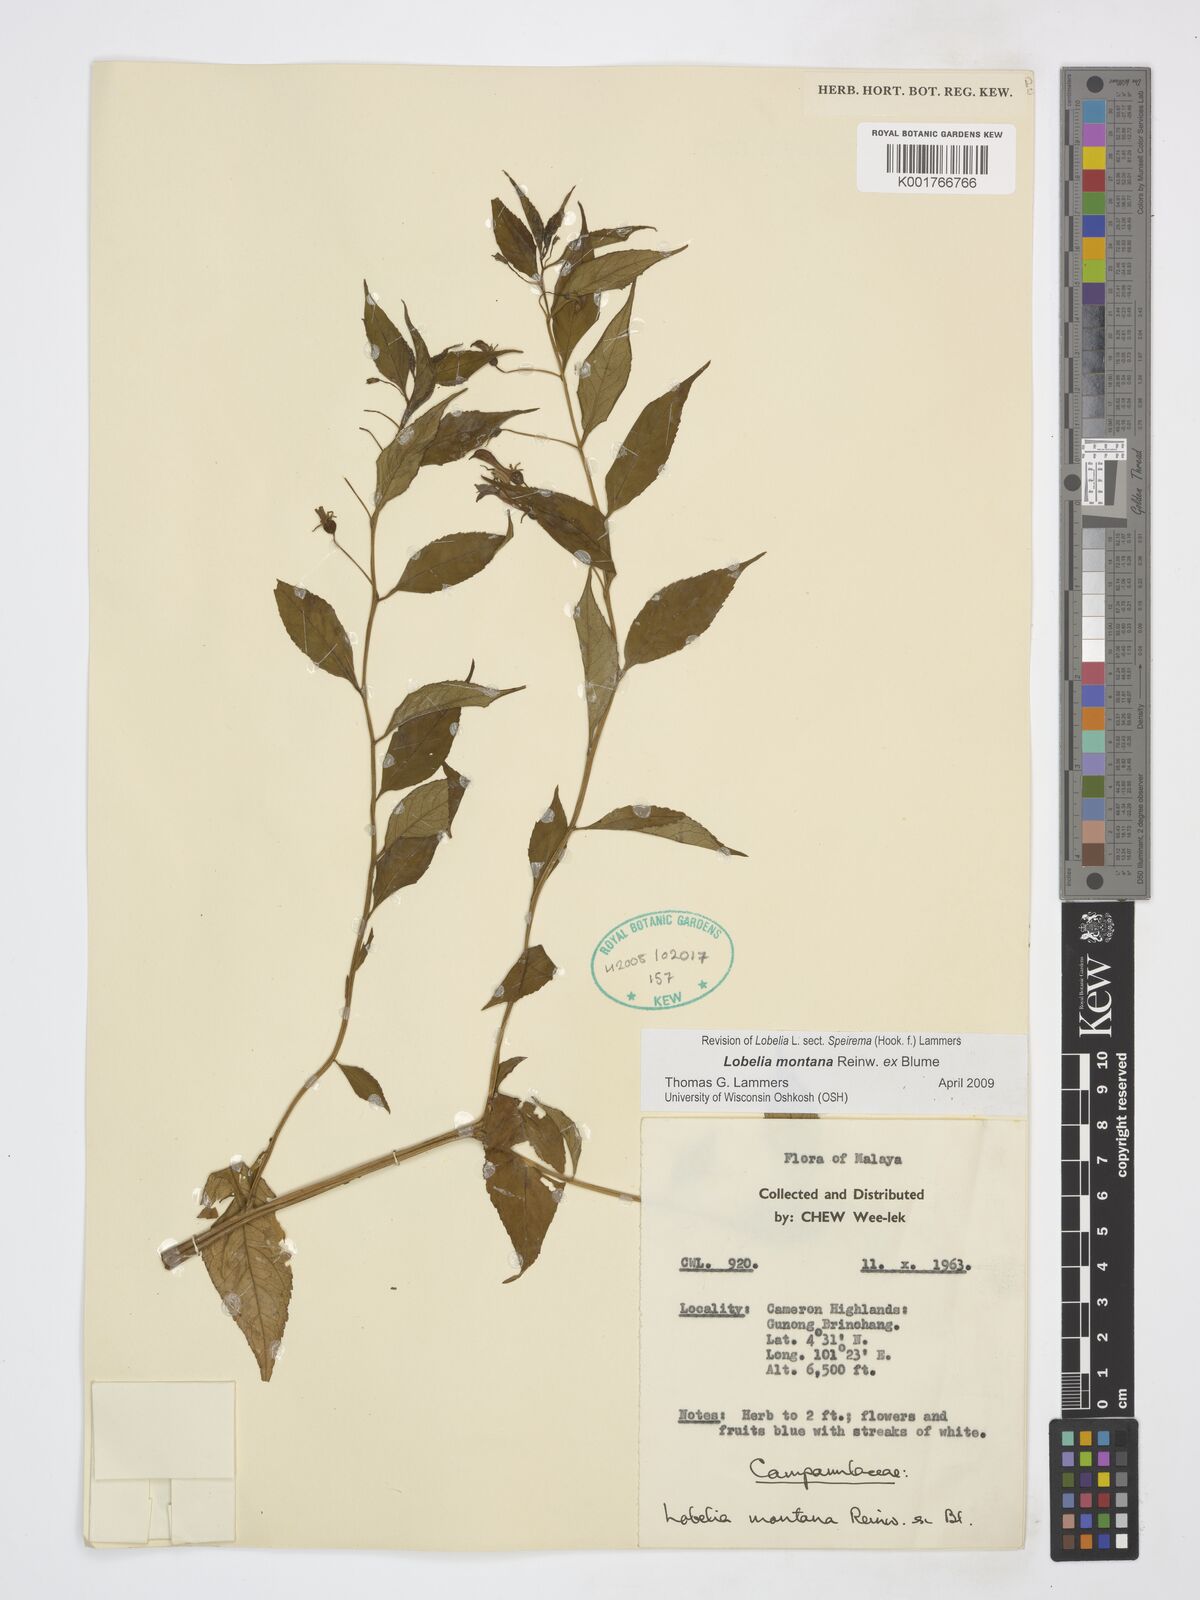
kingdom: Plantae
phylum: Tracheophyta
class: Magnoliopsida
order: Asterales
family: Campanulaceae
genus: Lobelia
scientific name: Lobelia montana
